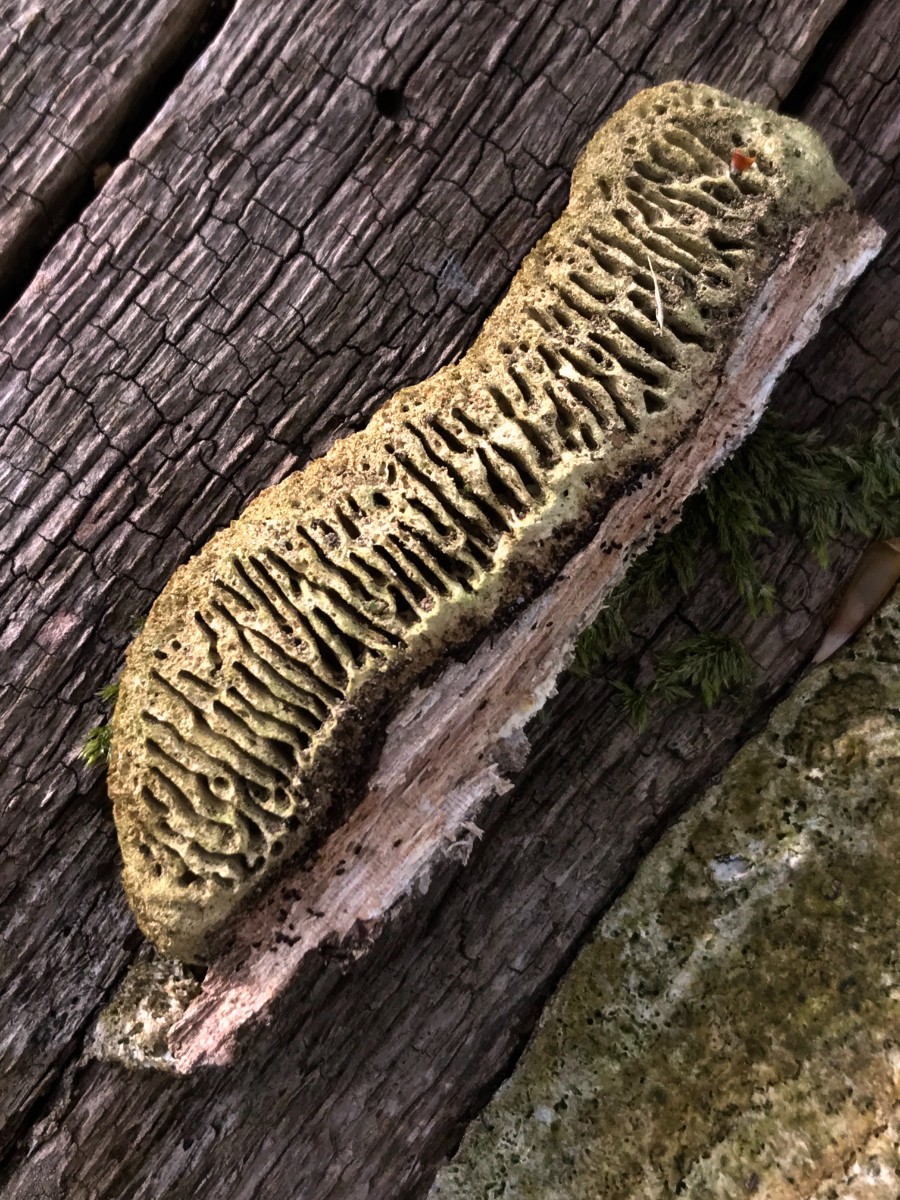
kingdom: Fungi
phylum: Basidiomycota
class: Agaricomycetes
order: Gloeophyllales
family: Gloeophyllaceae
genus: Gloeophyllum
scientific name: Gloeophyllum sepiarium
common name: fyrre-korkhat
